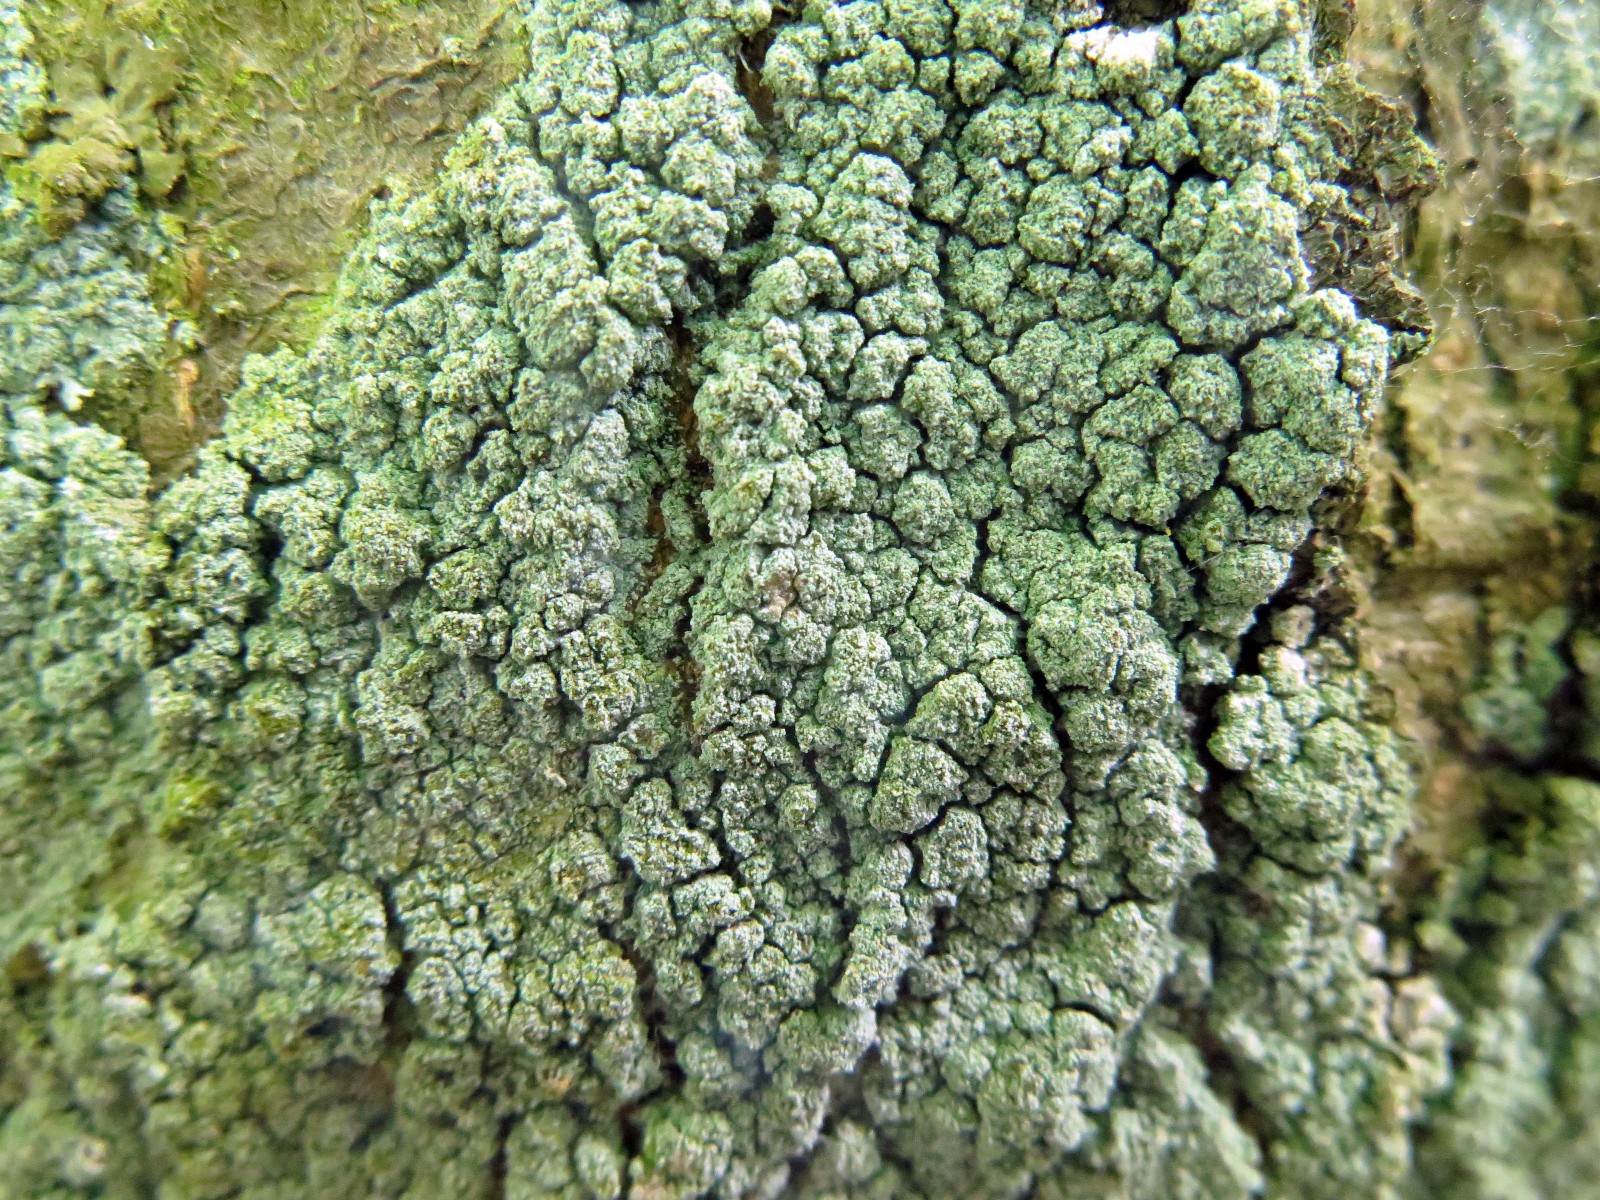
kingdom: Fungi
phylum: Ascomycota
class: Lecanoromycetes
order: Lecanorales
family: Stereocaulaceae
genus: Lepraria
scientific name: Lepraria incana
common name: almindelig støvlav
